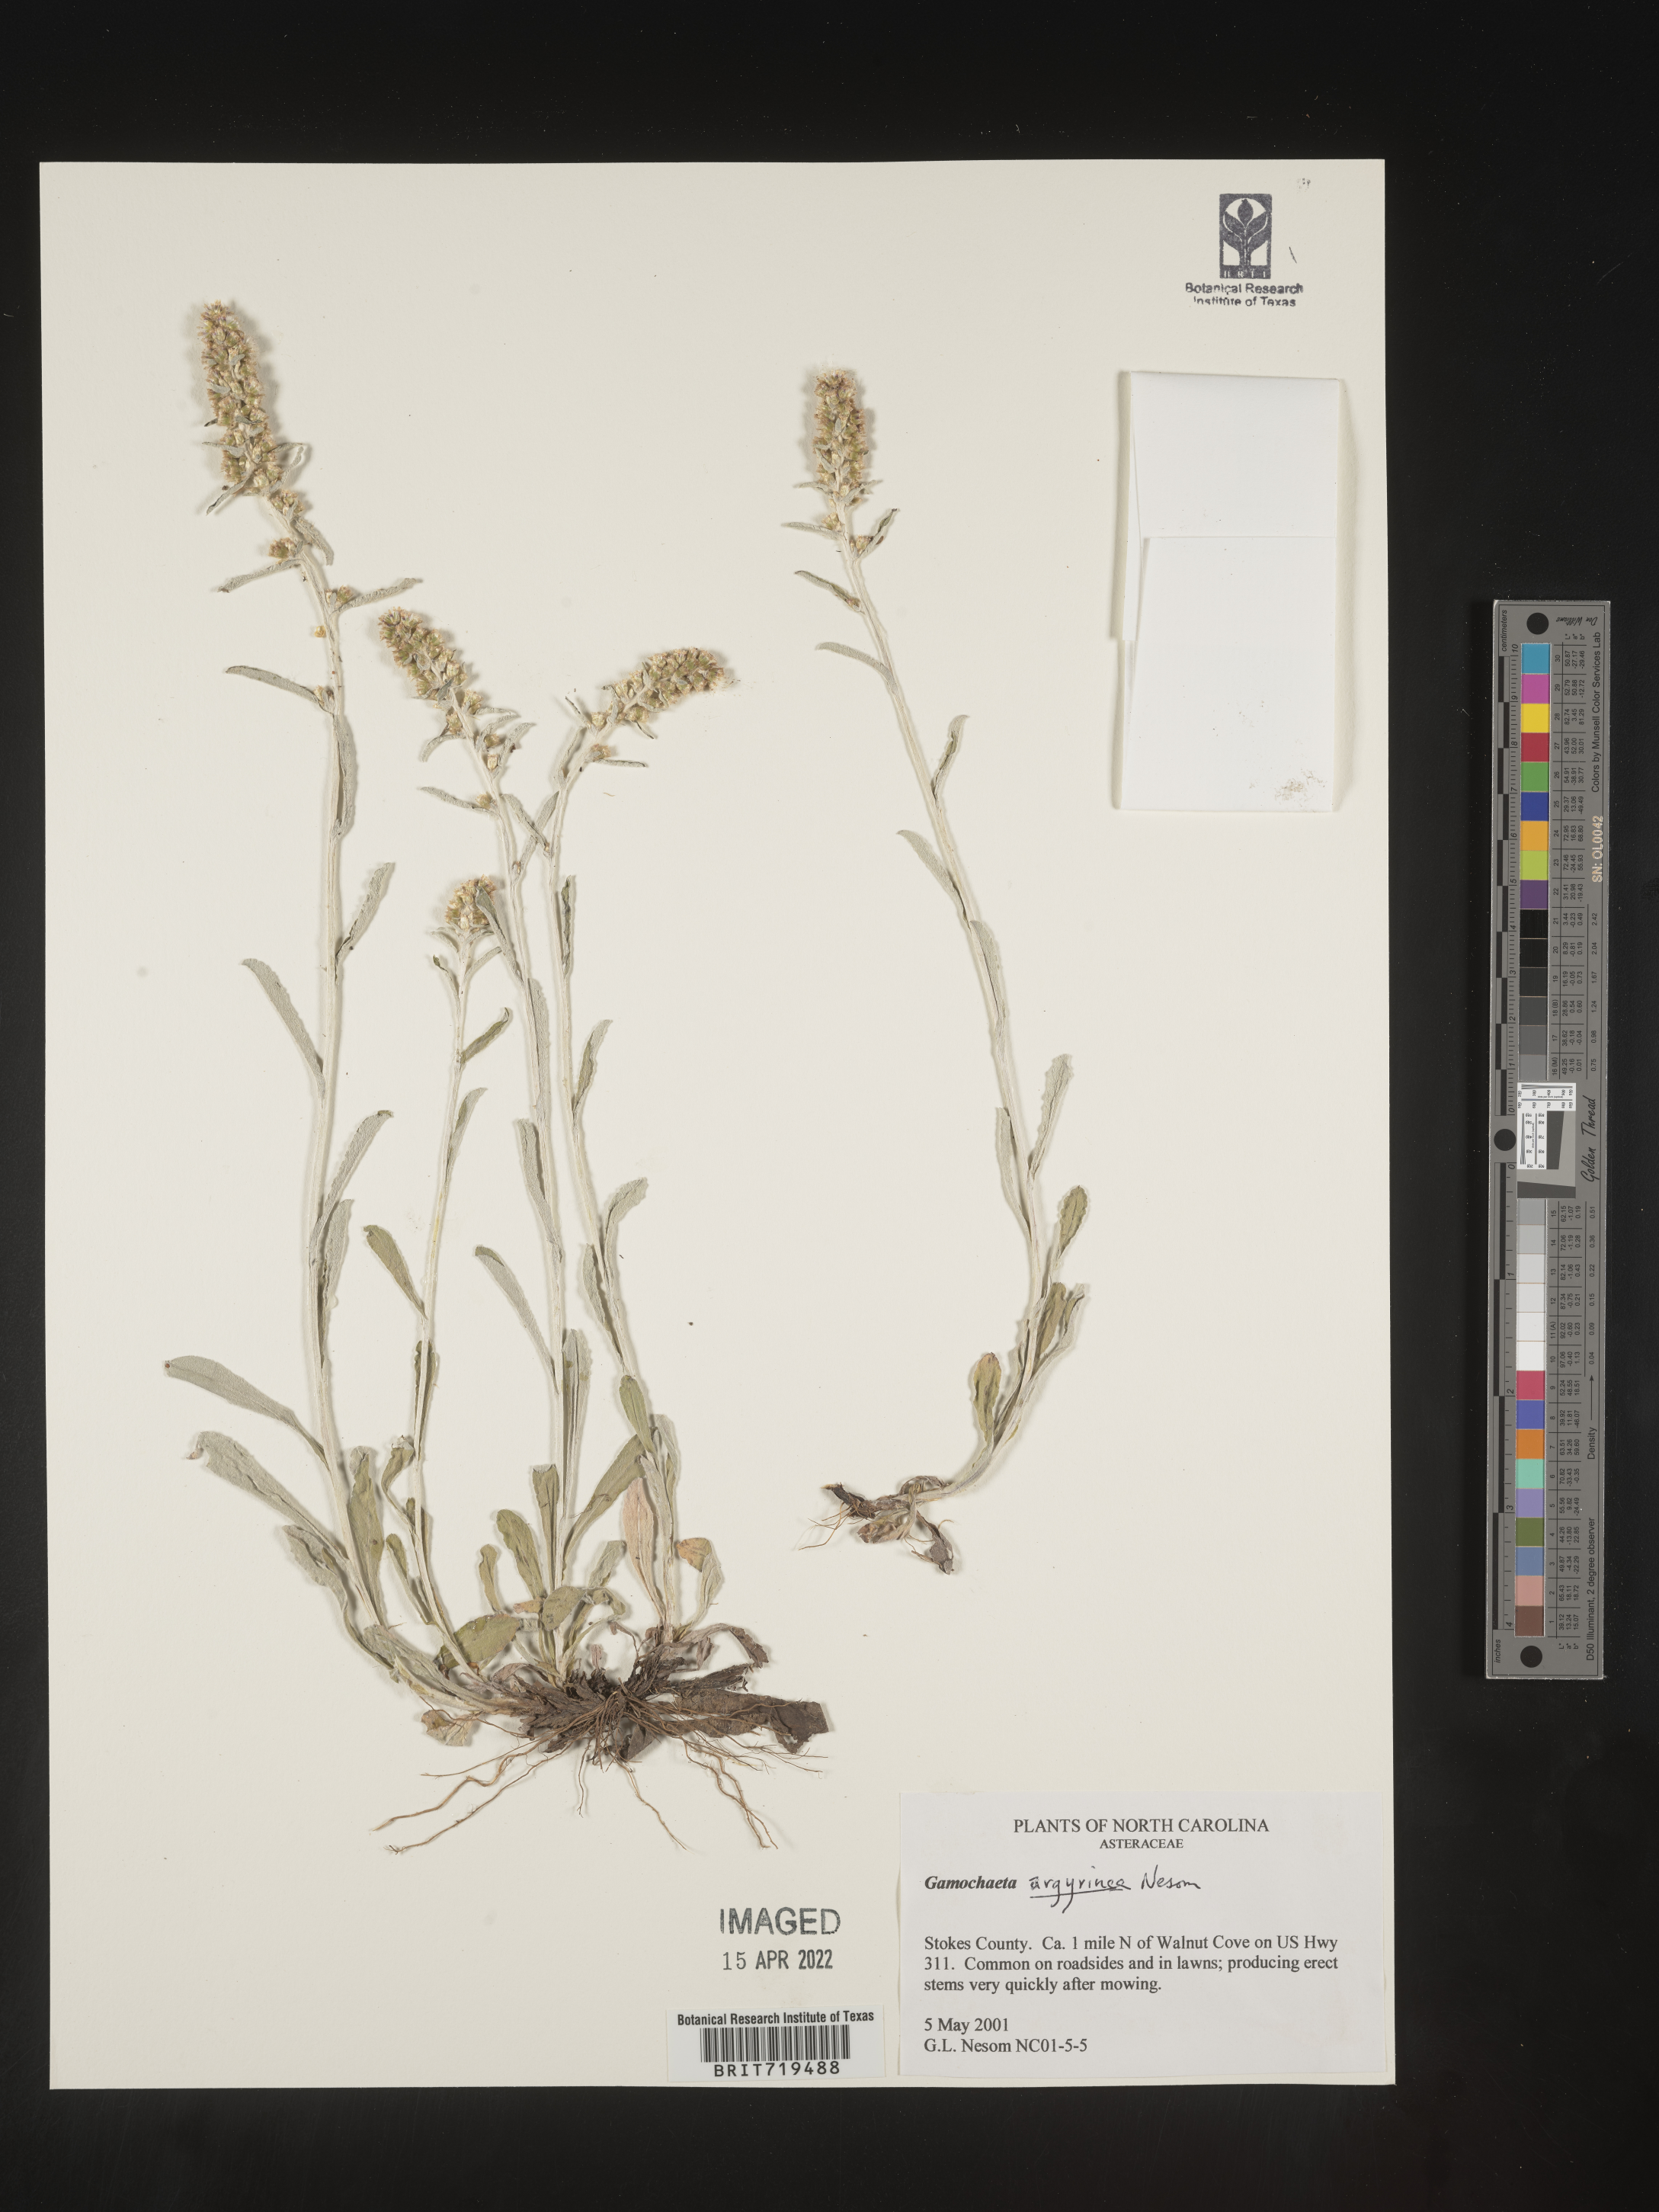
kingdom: Plantae
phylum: Tracheophyta
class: Magnoliopsida
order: Asterales
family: Asteraceae
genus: Gamochaeta
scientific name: Gamochaeta argyrinea
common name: Silvery cudweed
